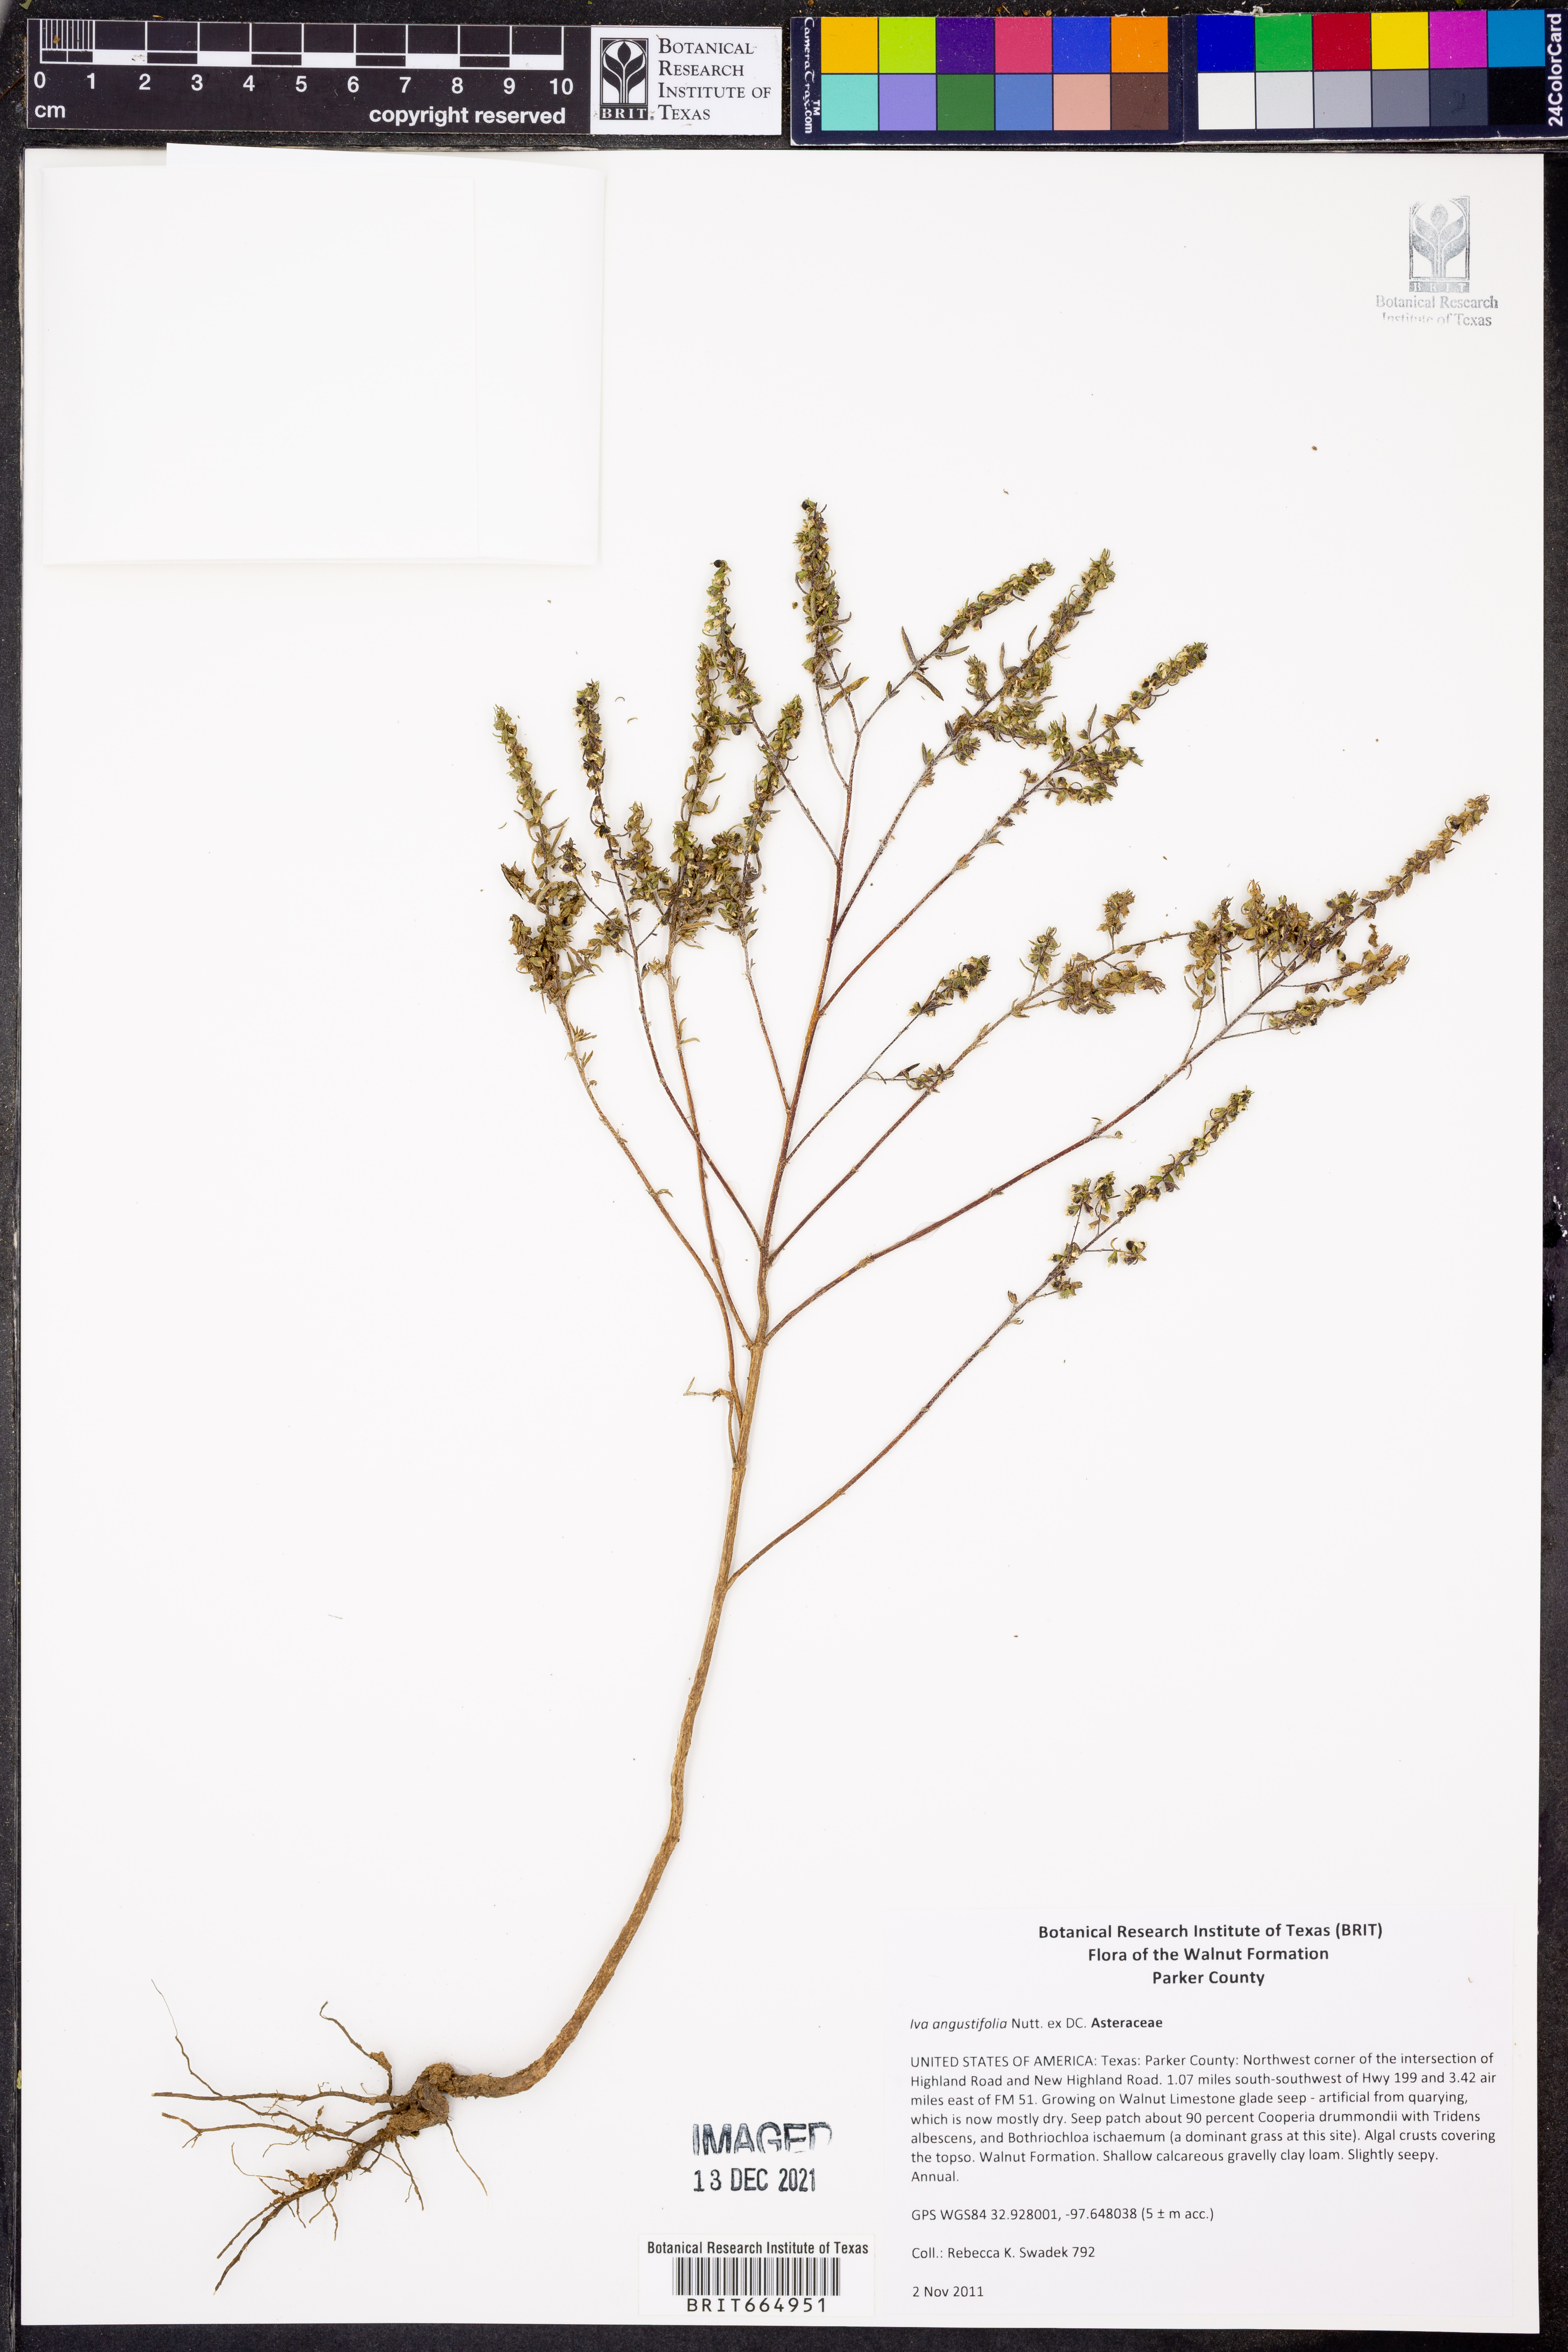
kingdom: Plantae
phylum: Tracheophyta
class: Magnoliopsida
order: Asterales
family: Asteraceae
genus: Iva
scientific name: Iva asperifolia
